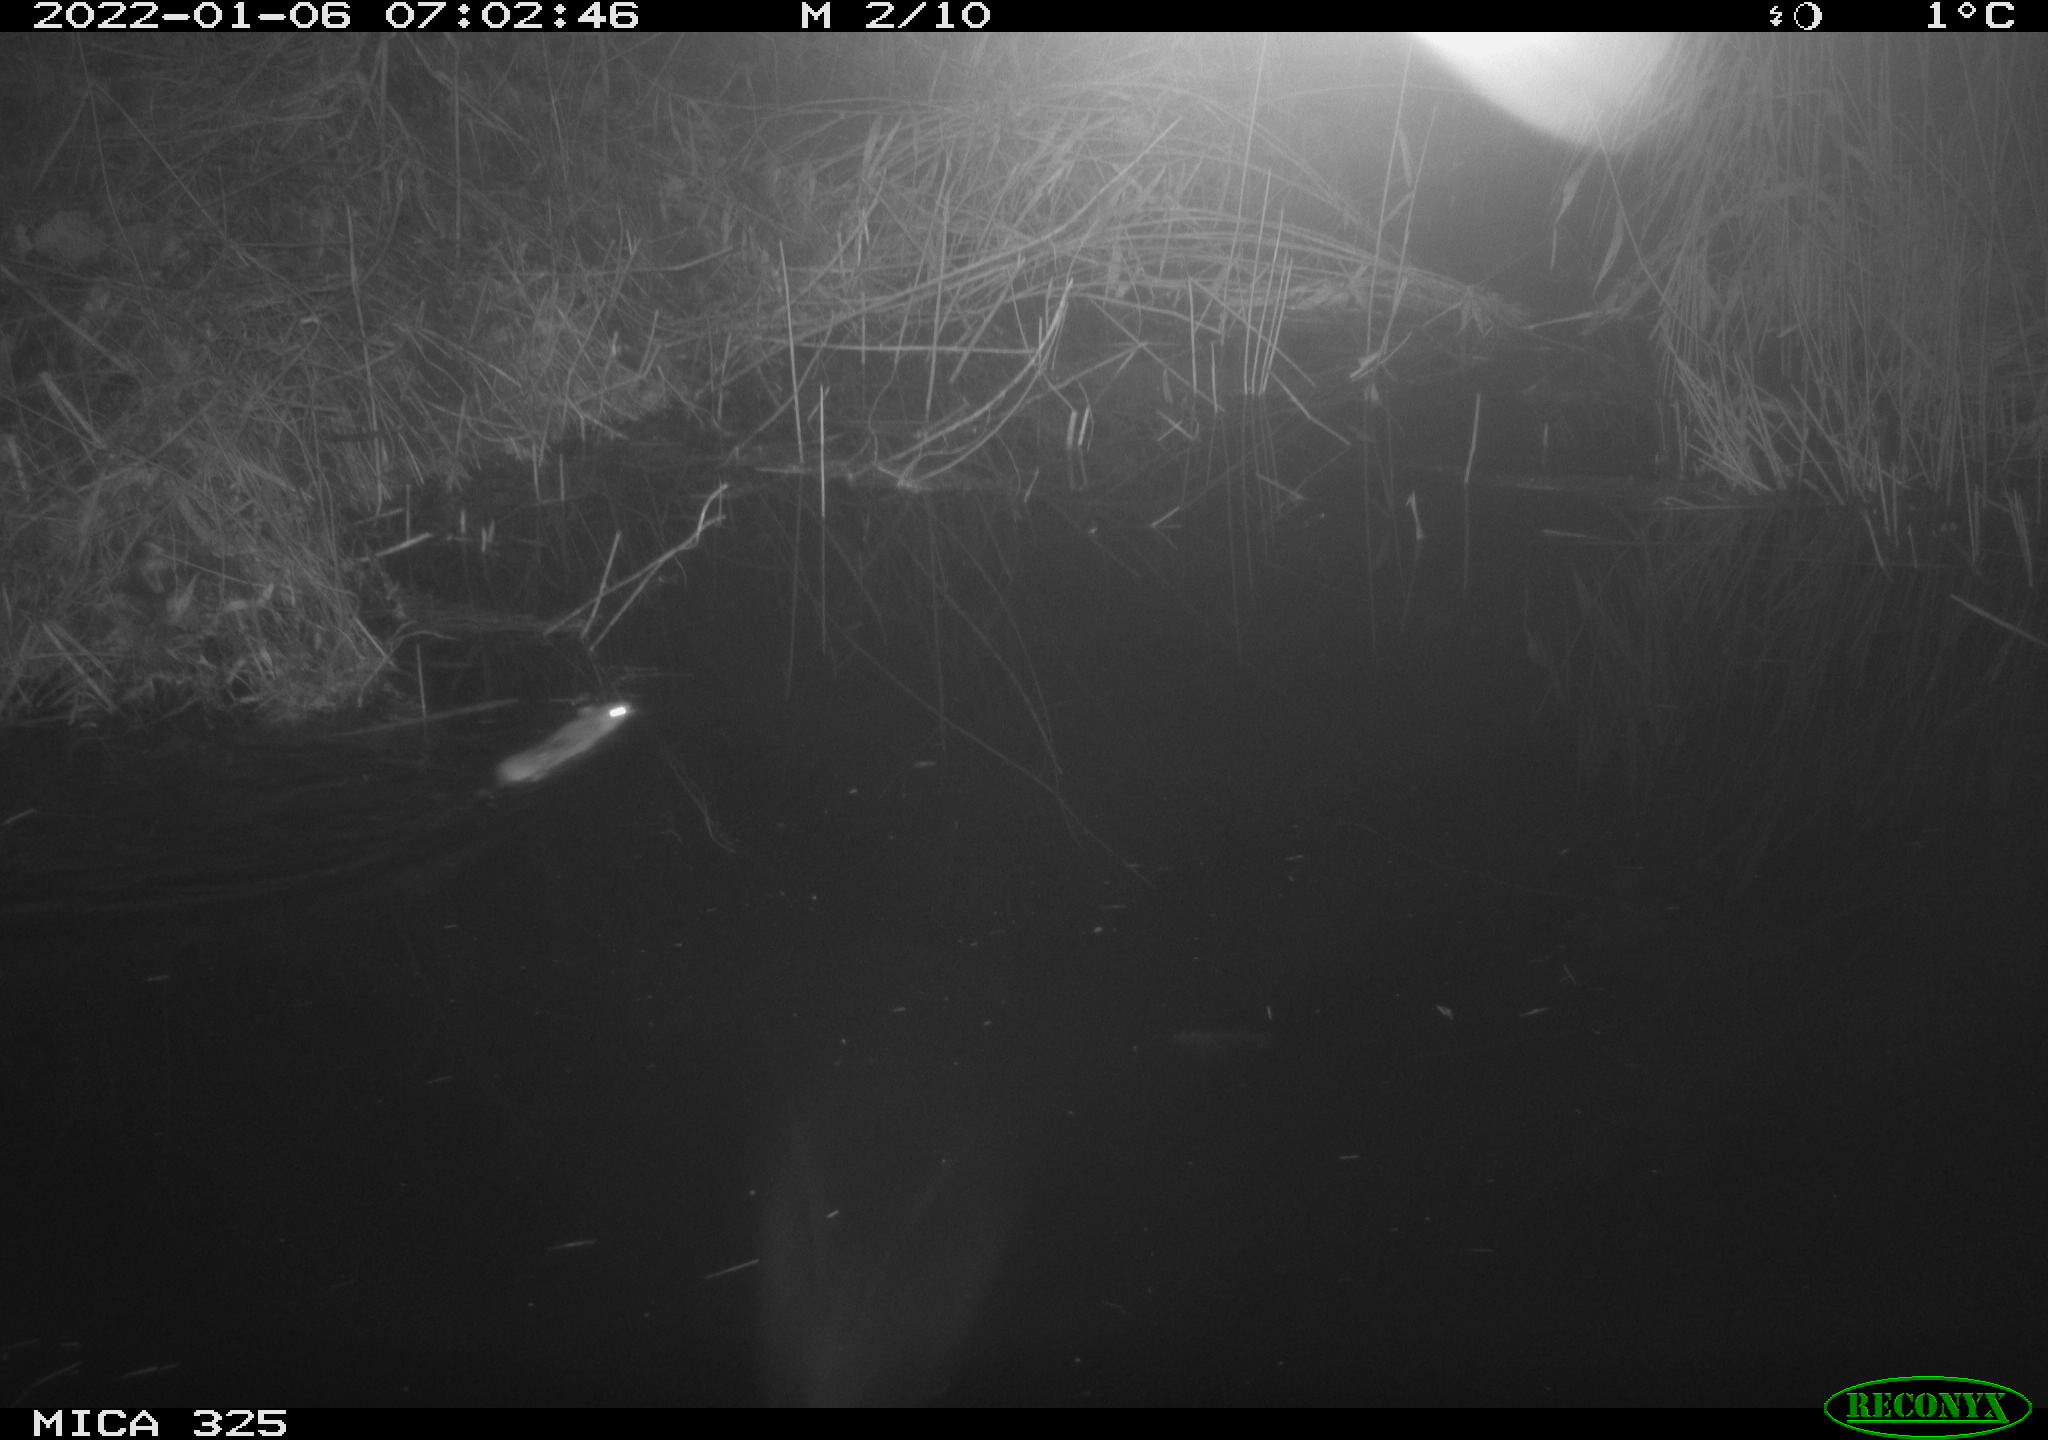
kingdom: Animalia
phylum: Chordata
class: Mammalia
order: Rodentia
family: Muridae
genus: Rattus
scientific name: Rattus norvegicus
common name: Brown rat
